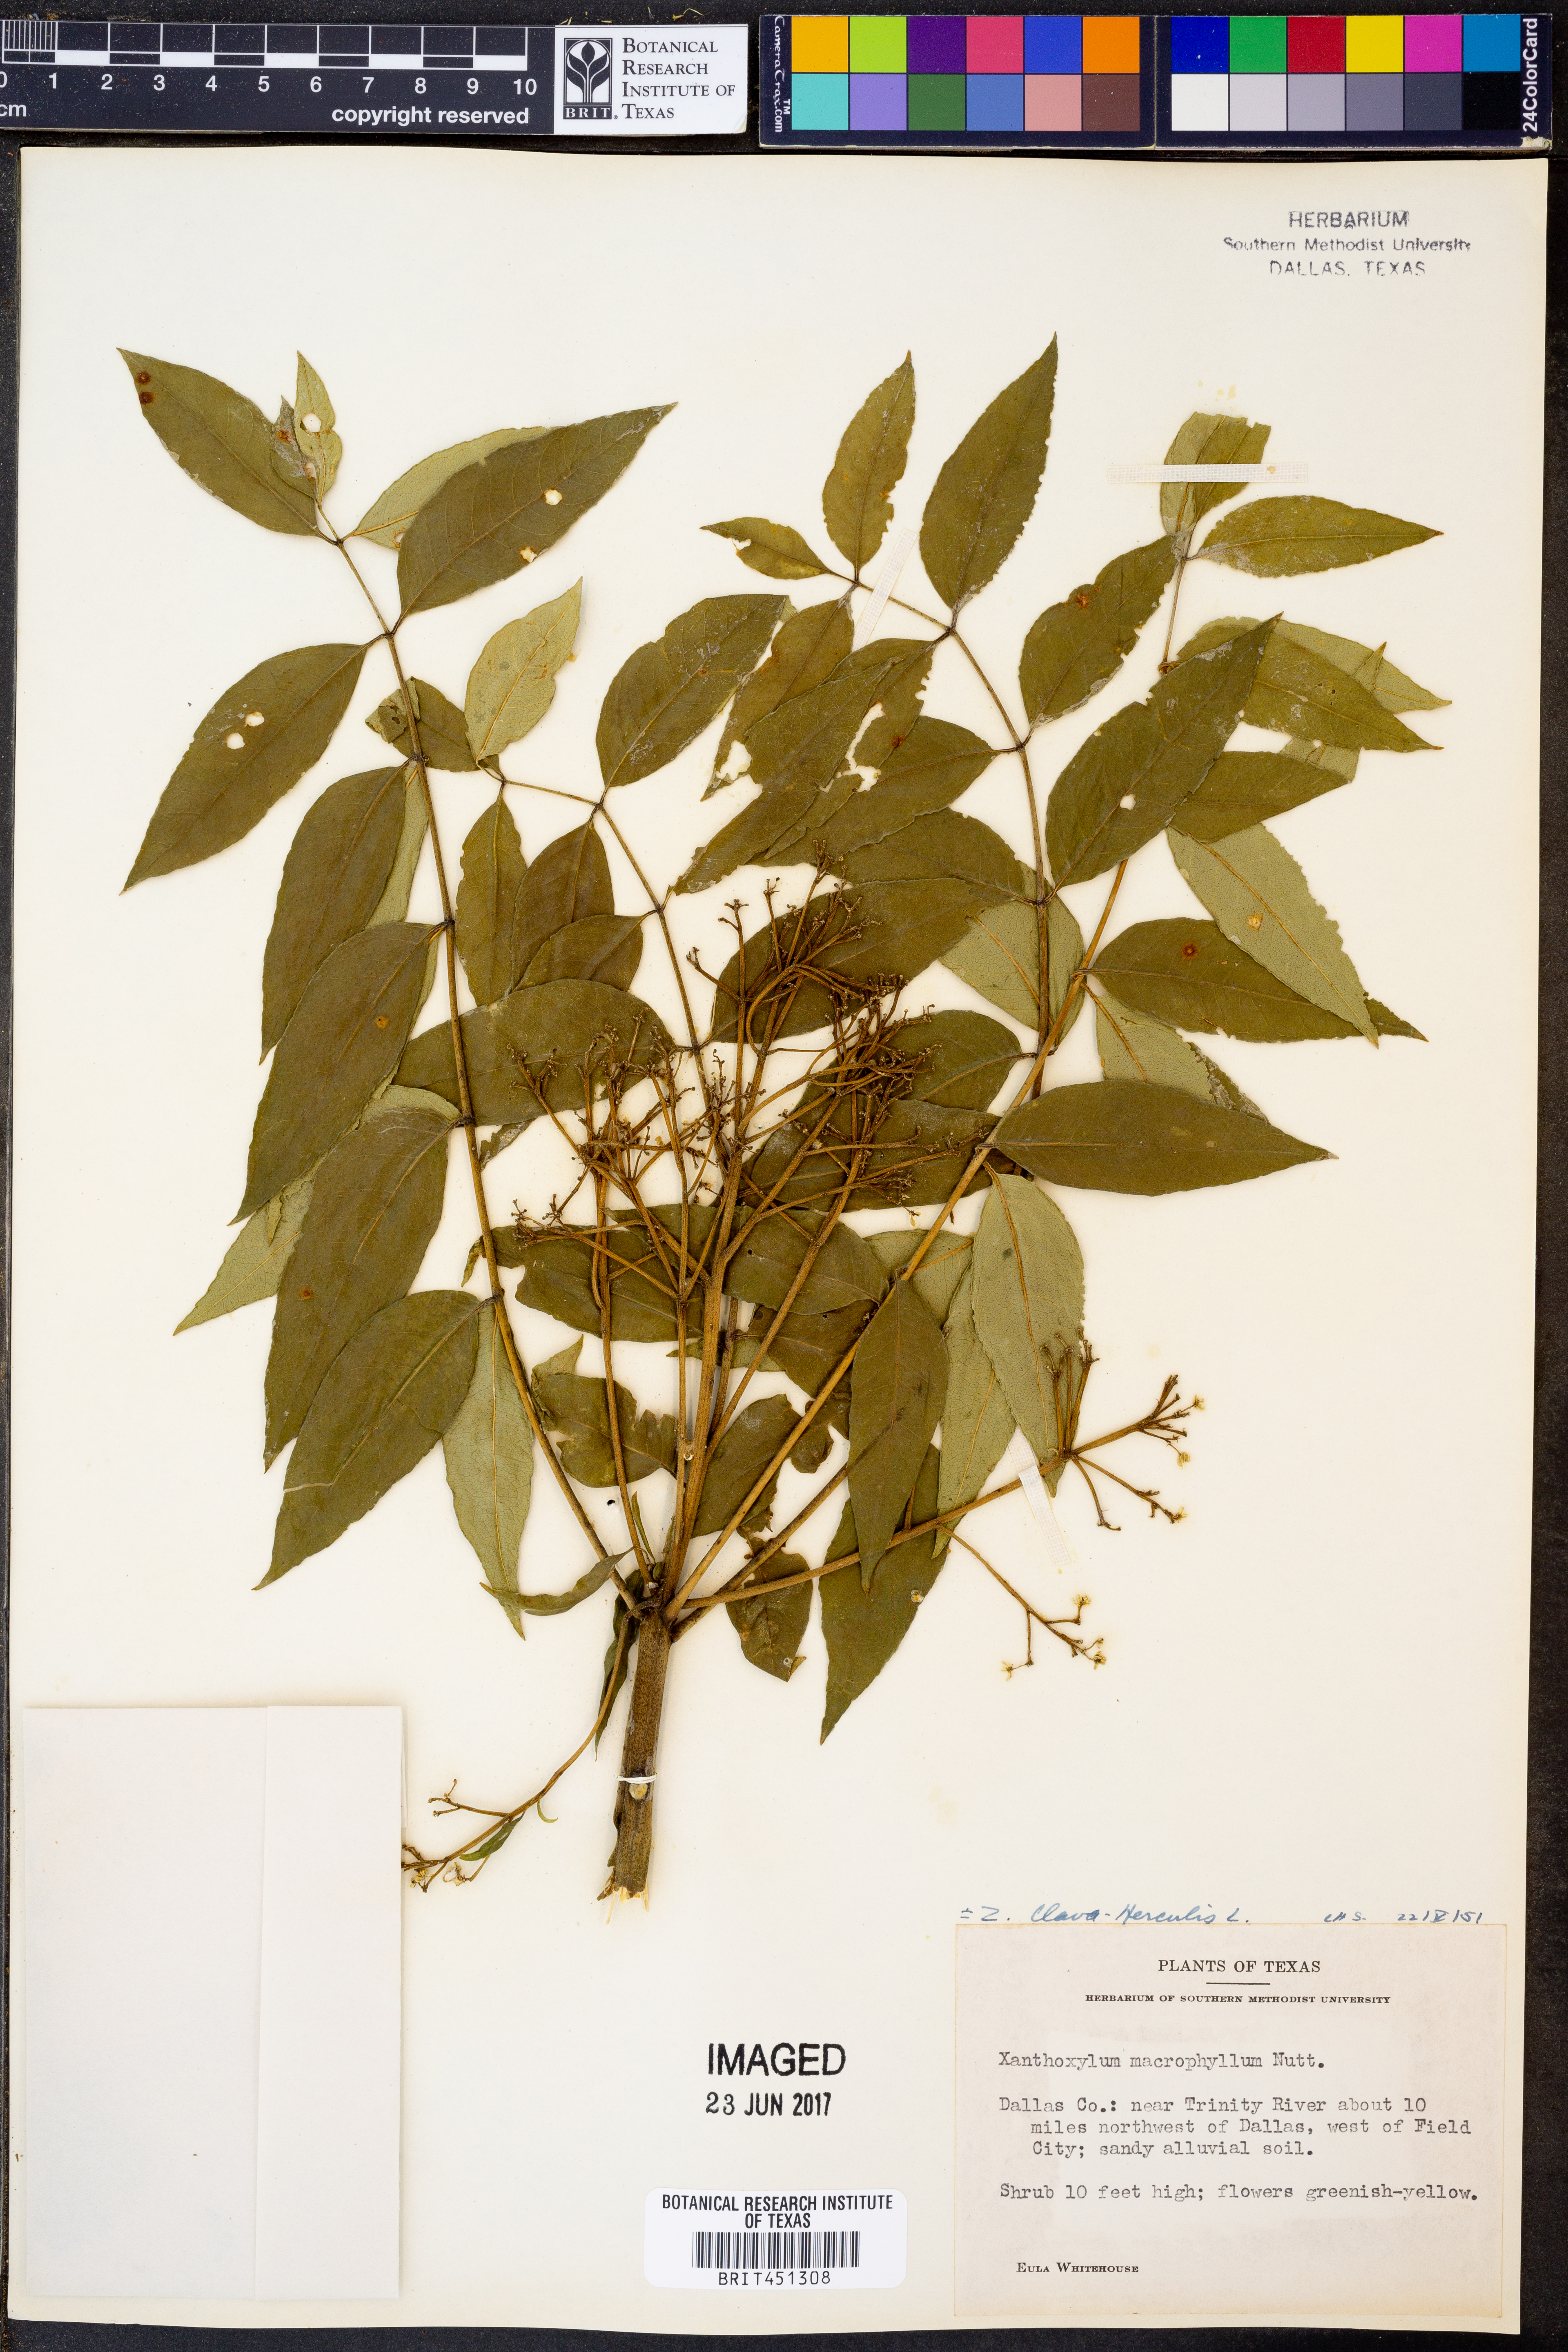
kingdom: Plantae
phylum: Tracheophyta
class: Magnoliopsida
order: Sapindales
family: Rutaceae
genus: Zanthoxylum
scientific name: Zanthoxylum gilletii
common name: African satinwood
